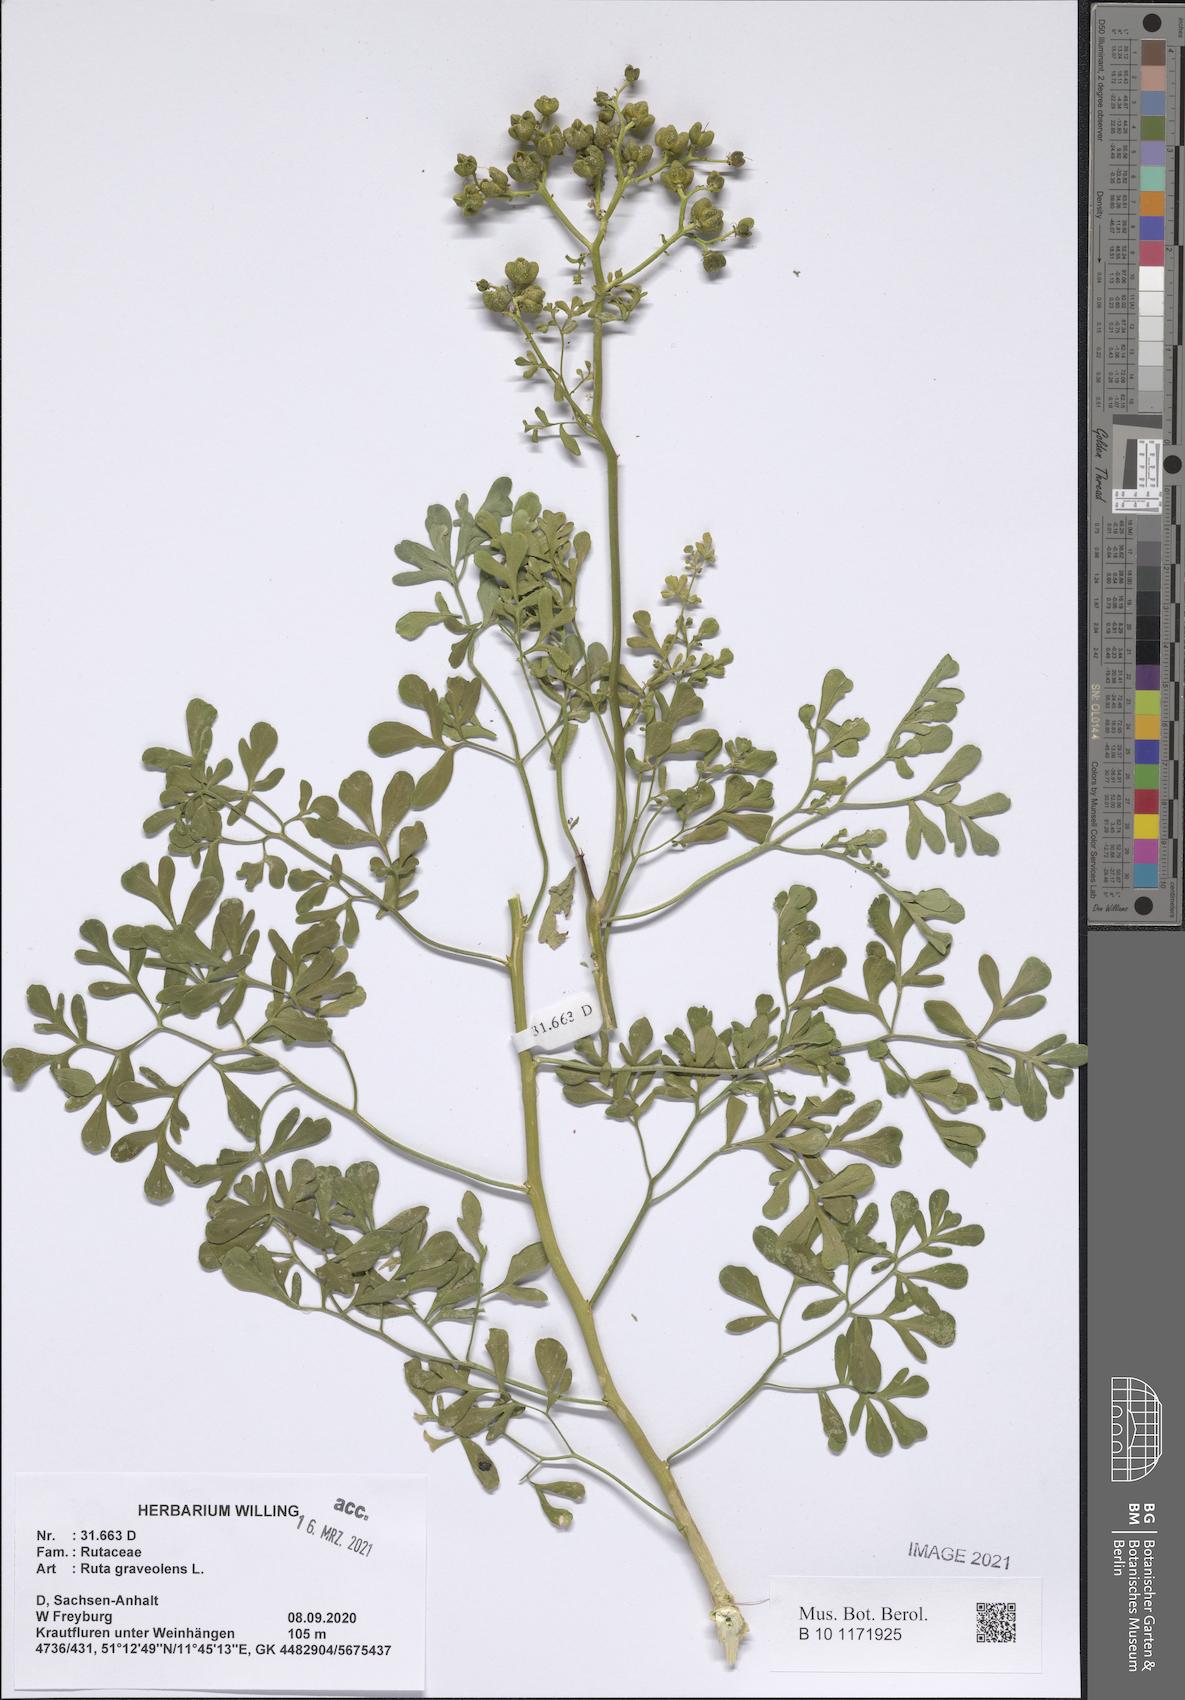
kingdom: Plantae
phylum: Tracheophyta
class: Magnoliopsida
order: Sapindales
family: Rutaceae
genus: Ruta
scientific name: Ruta graveolens
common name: Common rue
